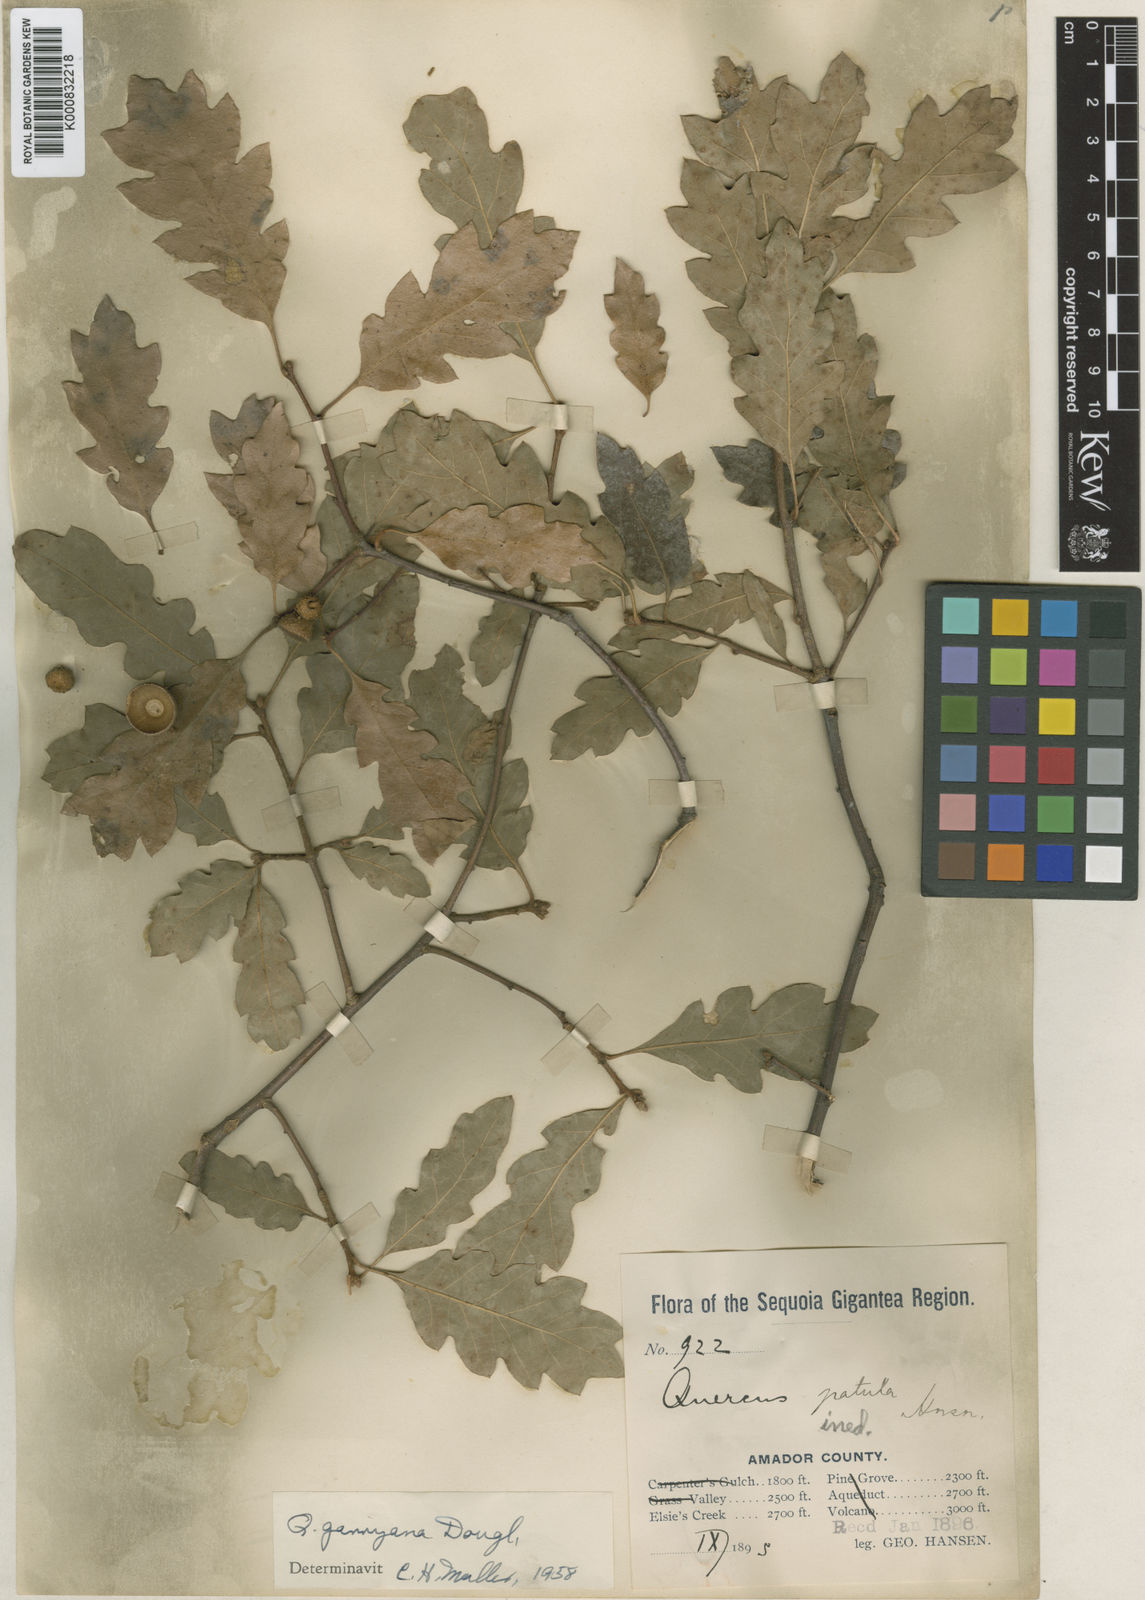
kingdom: Plantae
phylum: Tracheophyta
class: Magnoliopsida
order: Fagales
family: Fagaceae
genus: Quercus
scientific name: Quercus garryana
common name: Garry oak
